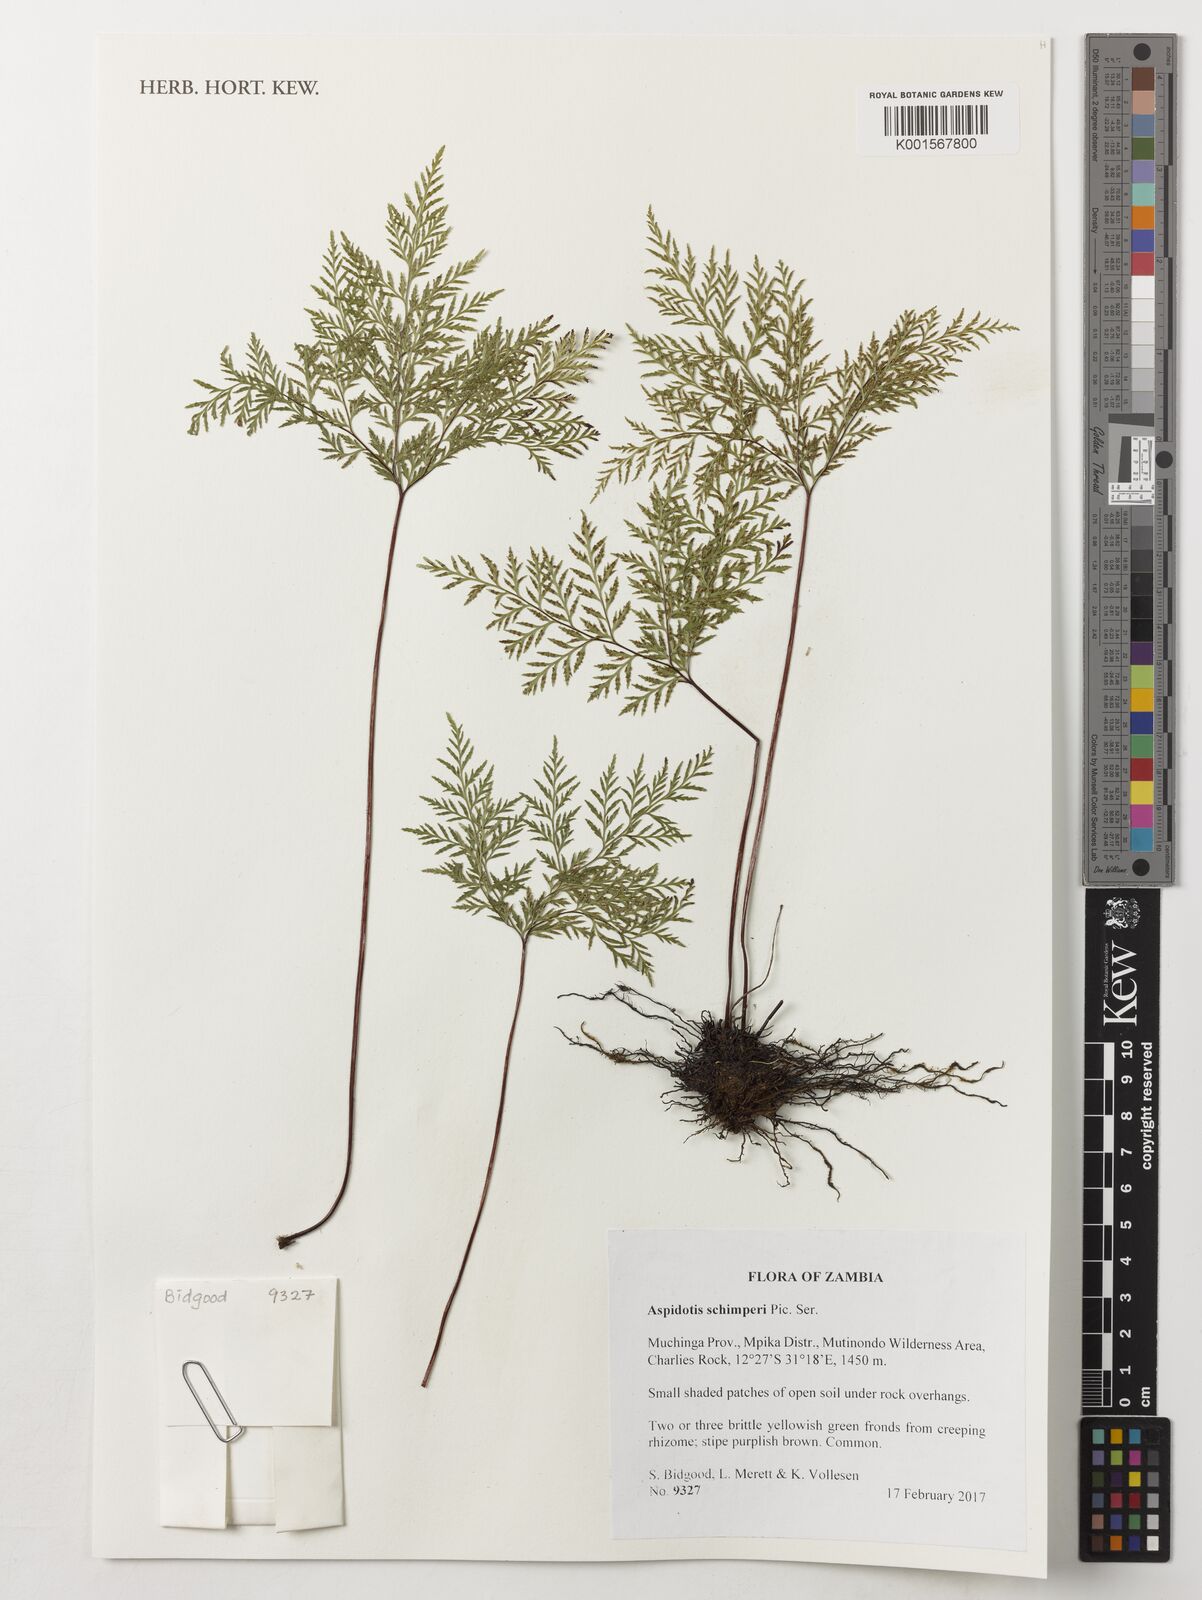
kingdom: Plantae
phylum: Tracheophyta
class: Polypodiopsida
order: Polypodiales
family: Pteridaceae
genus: Cheilanthes
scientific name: Cheilanthes schimperi
